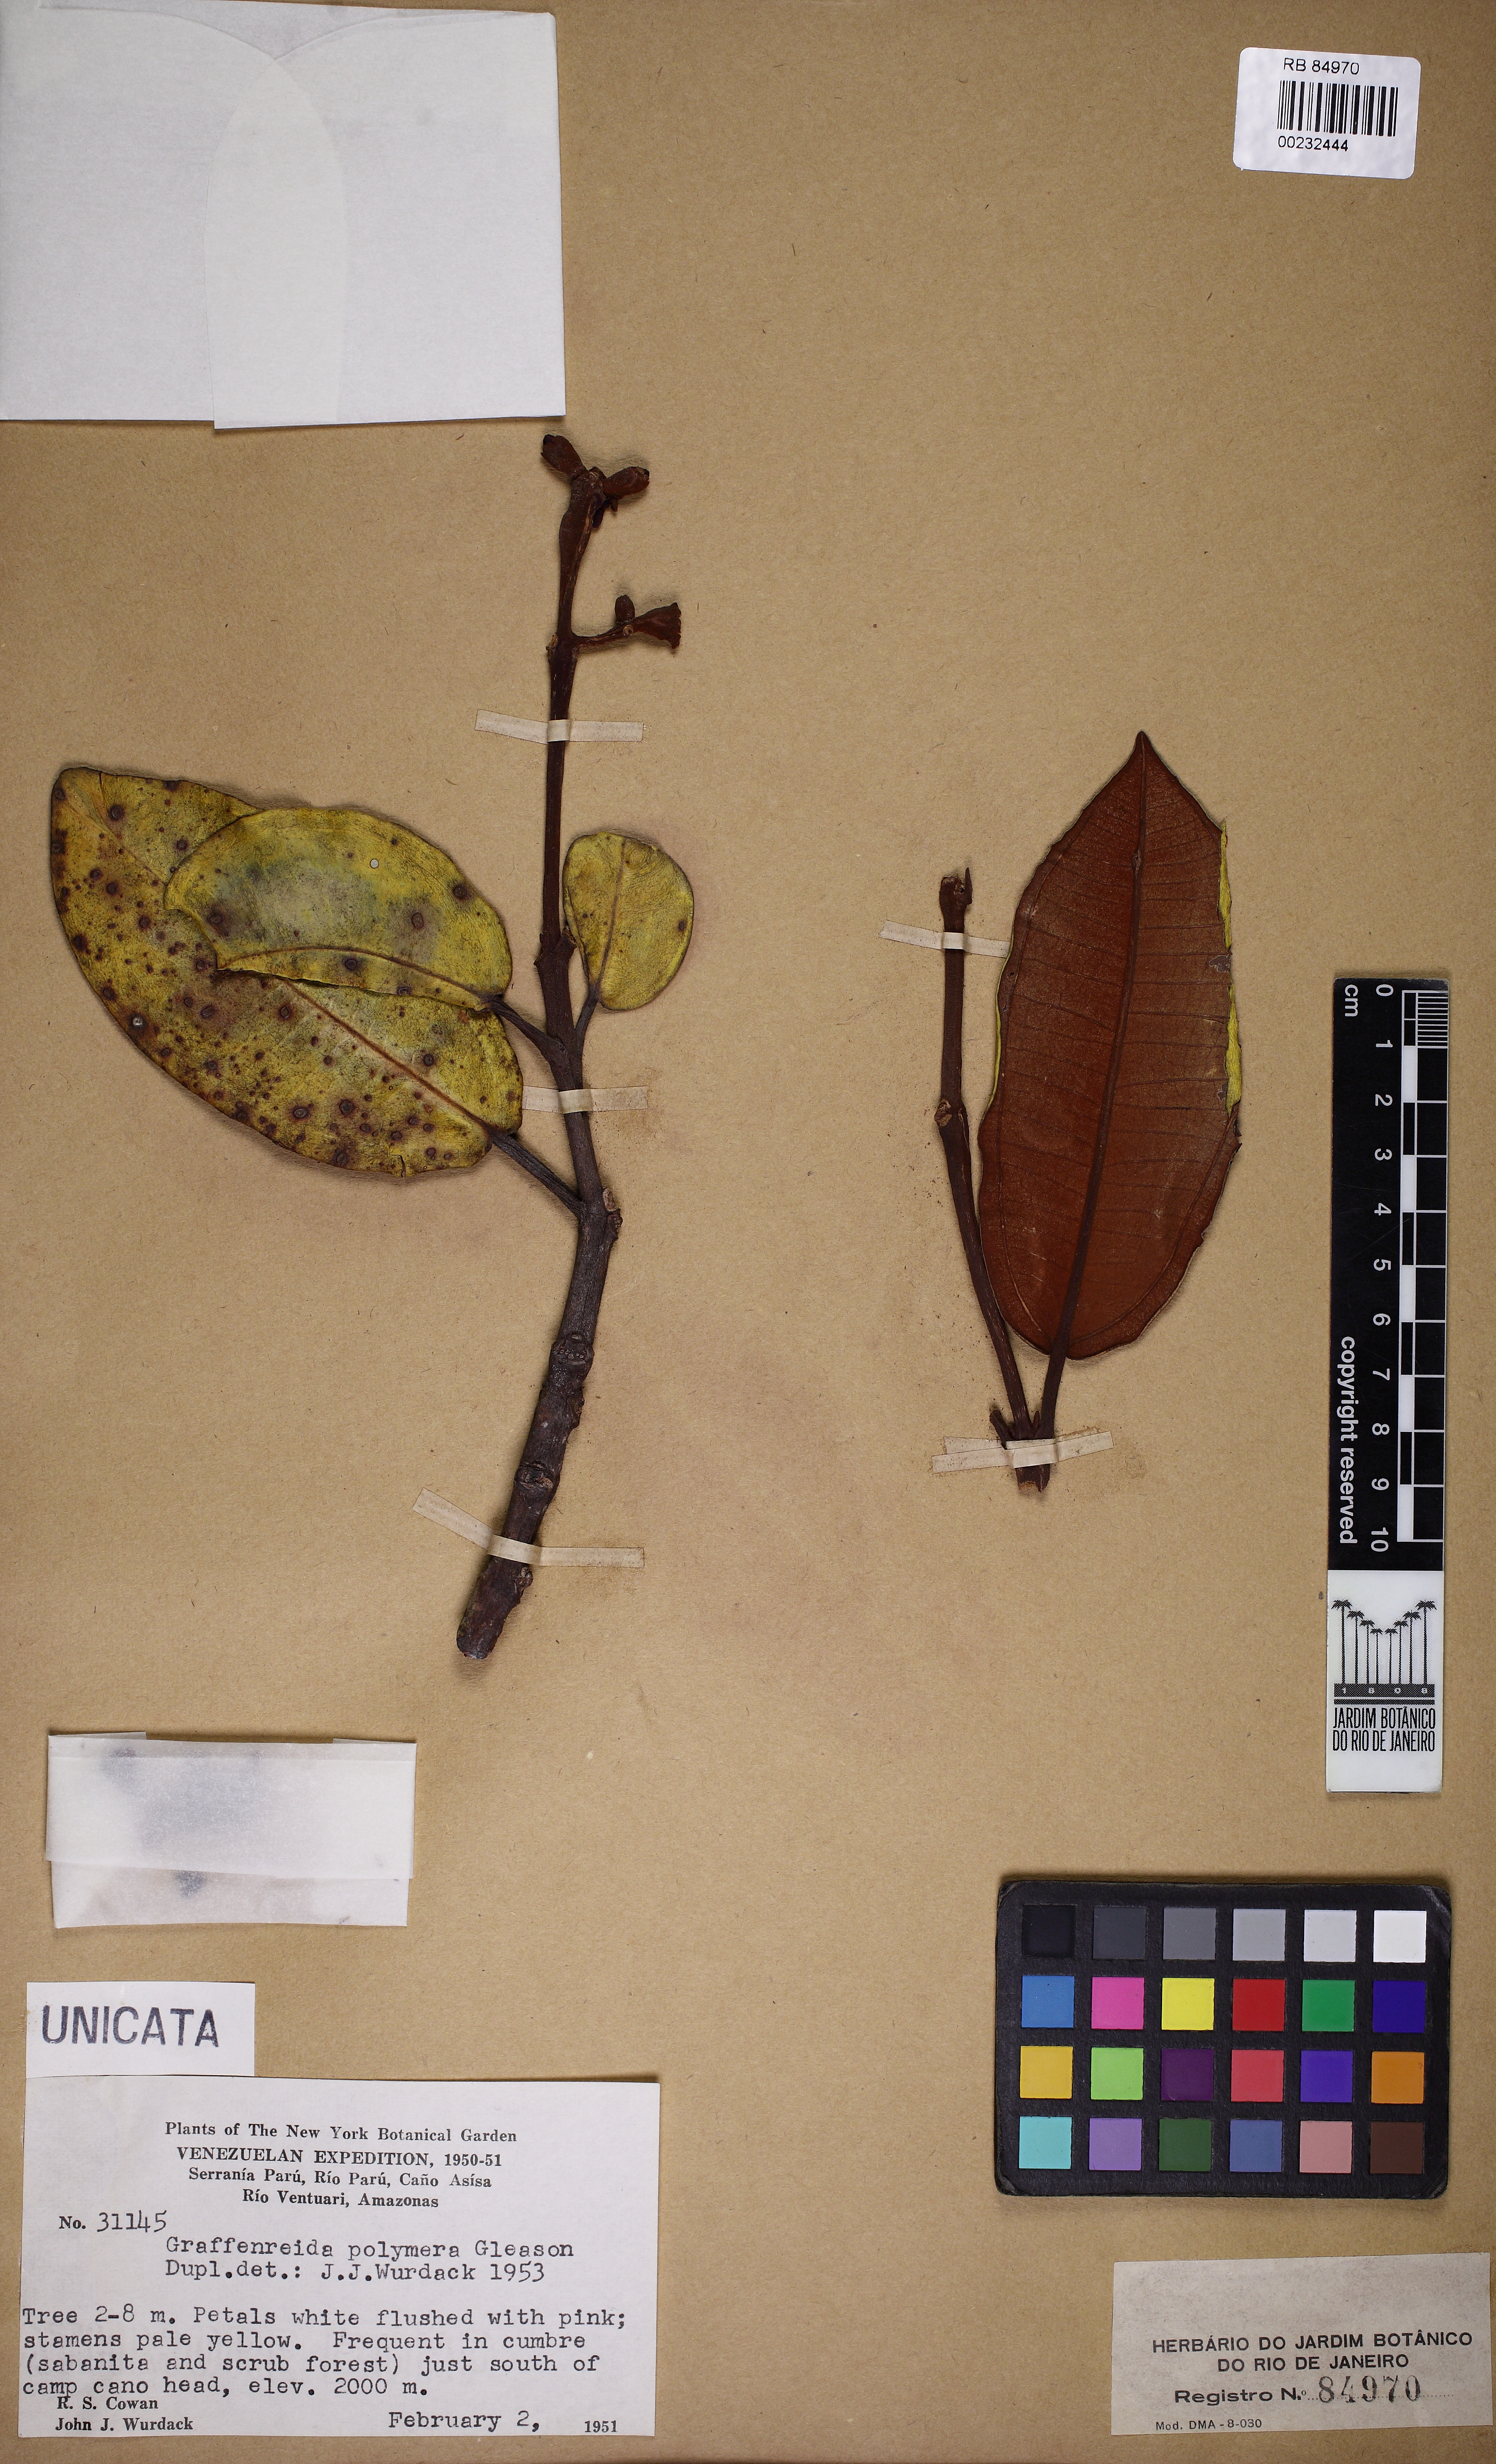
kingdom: Plantae
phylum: Tracheophyta
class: Magnoliopsida
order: Myrtales
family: Melastomataceae
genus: Graffenrieda
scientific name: Graffenrieda polymera
